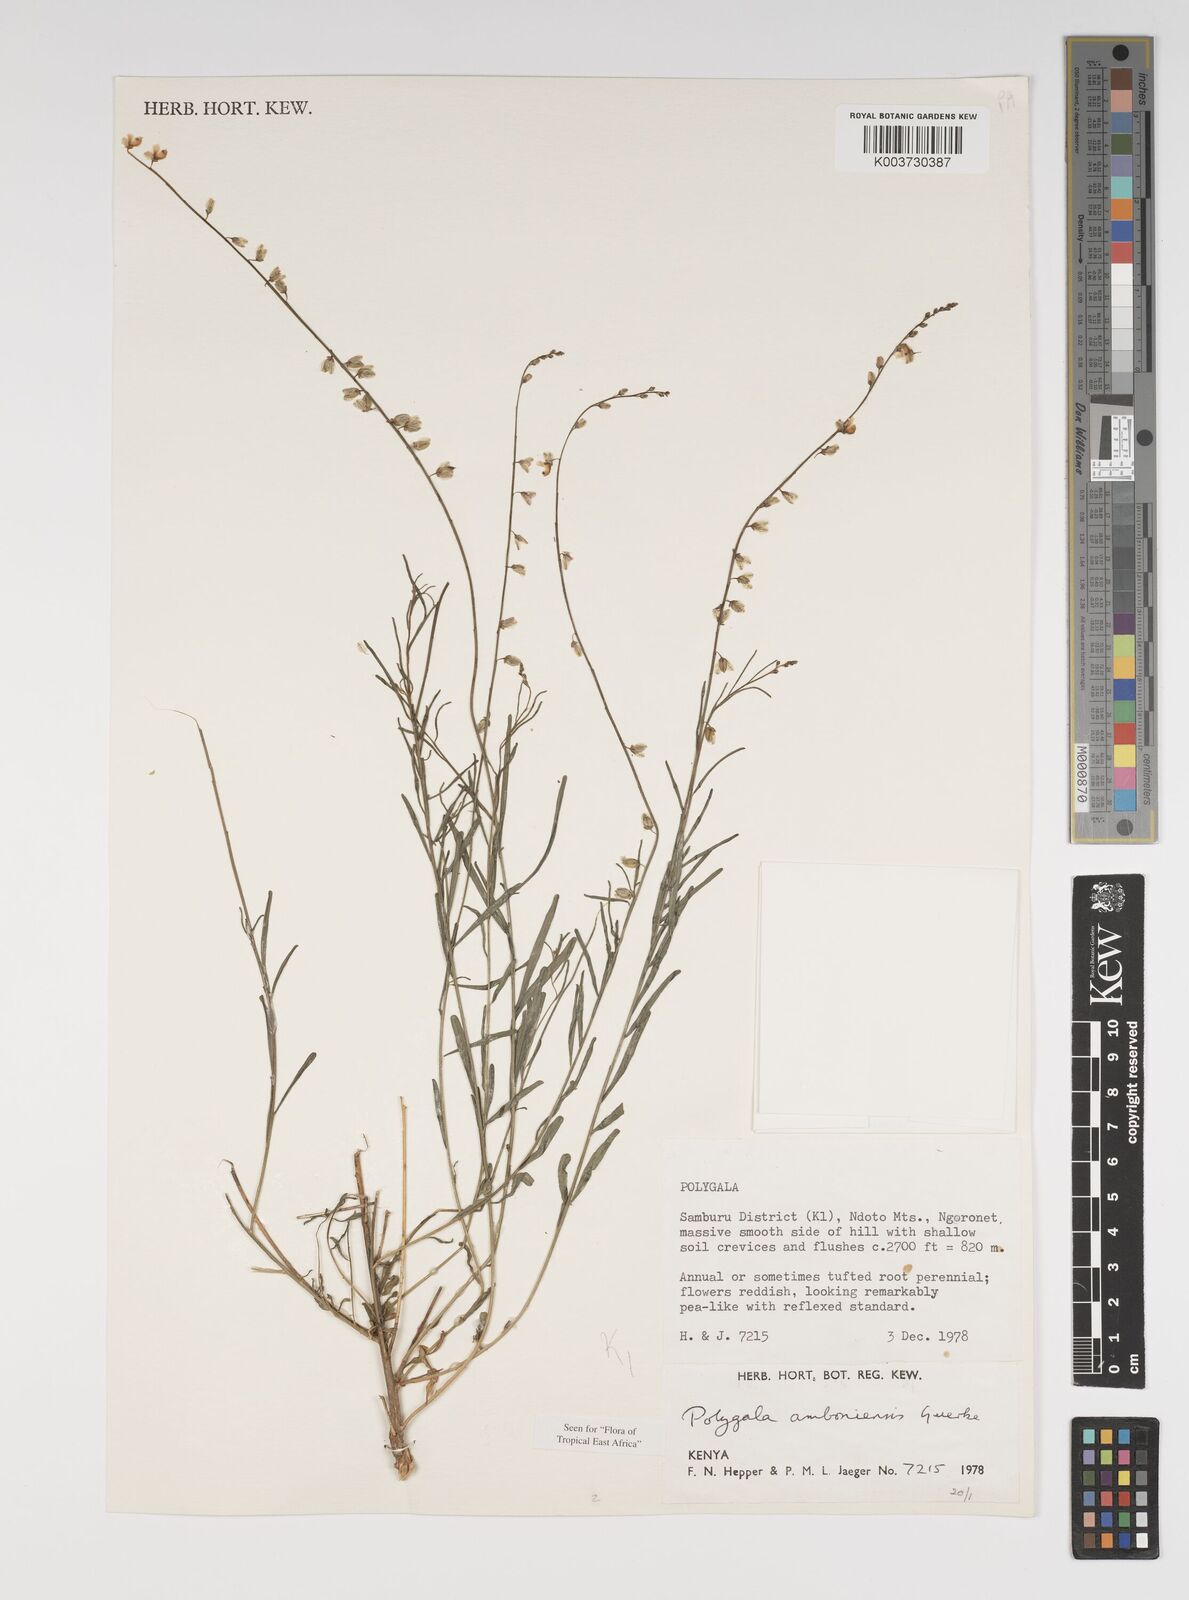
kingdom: Plantae
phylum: Tracheophyta
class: Magnoliopsida
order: Fabales
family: Polygalaceae
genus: Polygala
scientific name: Polygala amboniensis
